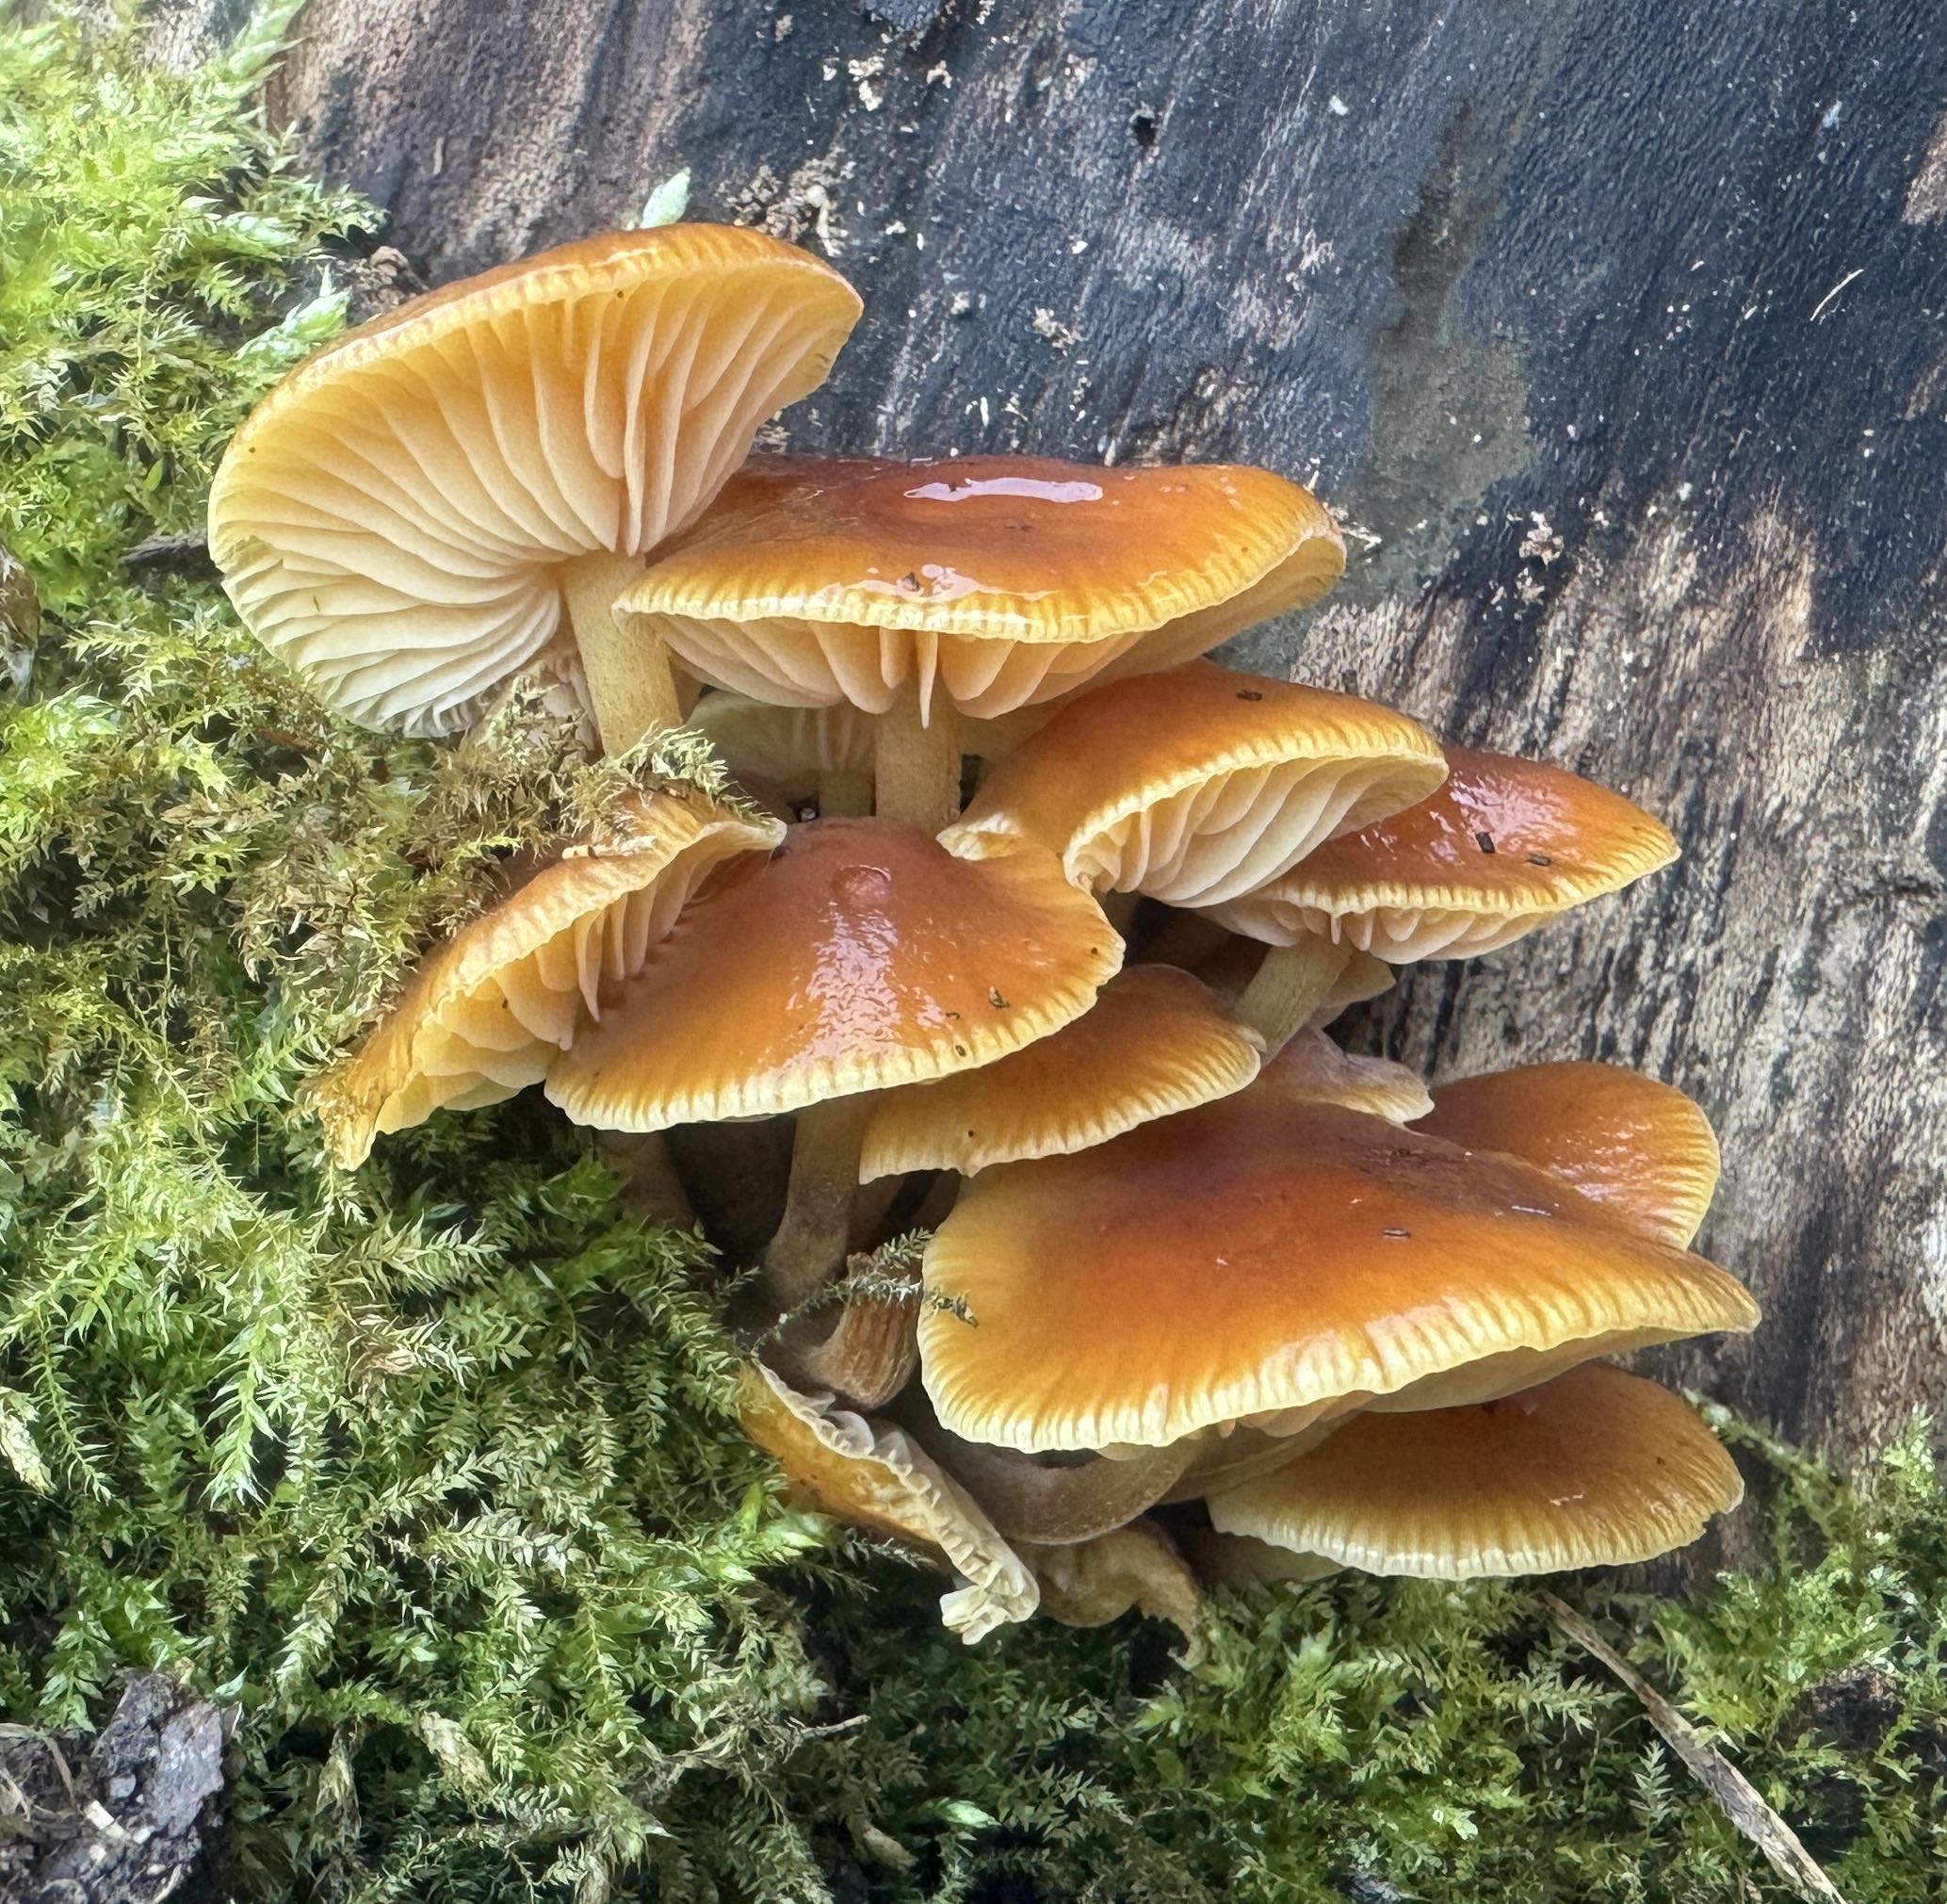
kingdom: Fungi
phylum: Basidiomycota
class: Agaricomycetes
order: Agaricales
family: Physalacriaceae
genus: Flammulina
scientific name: Flammulina velutipes
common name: gul fløjlsfod
